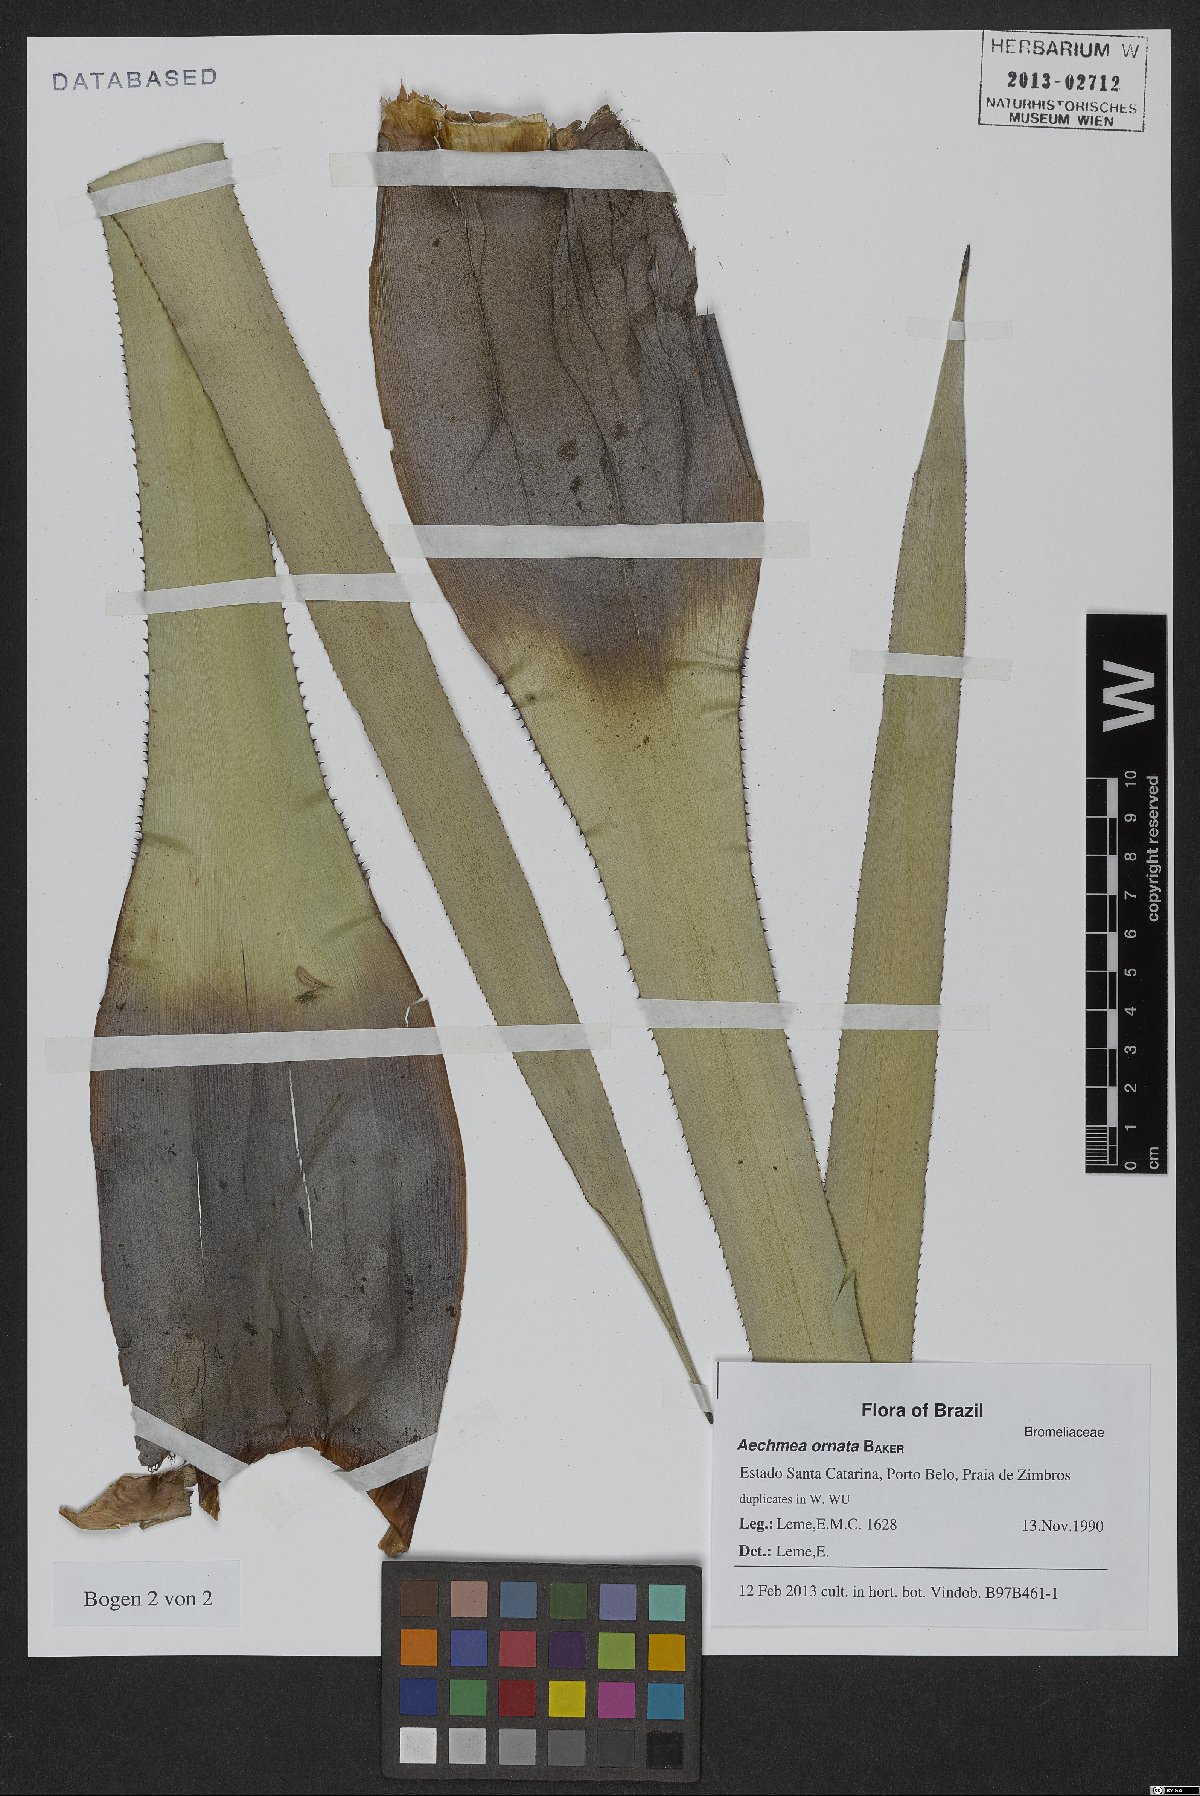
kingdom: Plantae
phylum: Tracheophyta
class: Liliopsida
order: Poales
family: Bromeliaceae
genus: Aechmea
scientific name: Aechmea ornata
